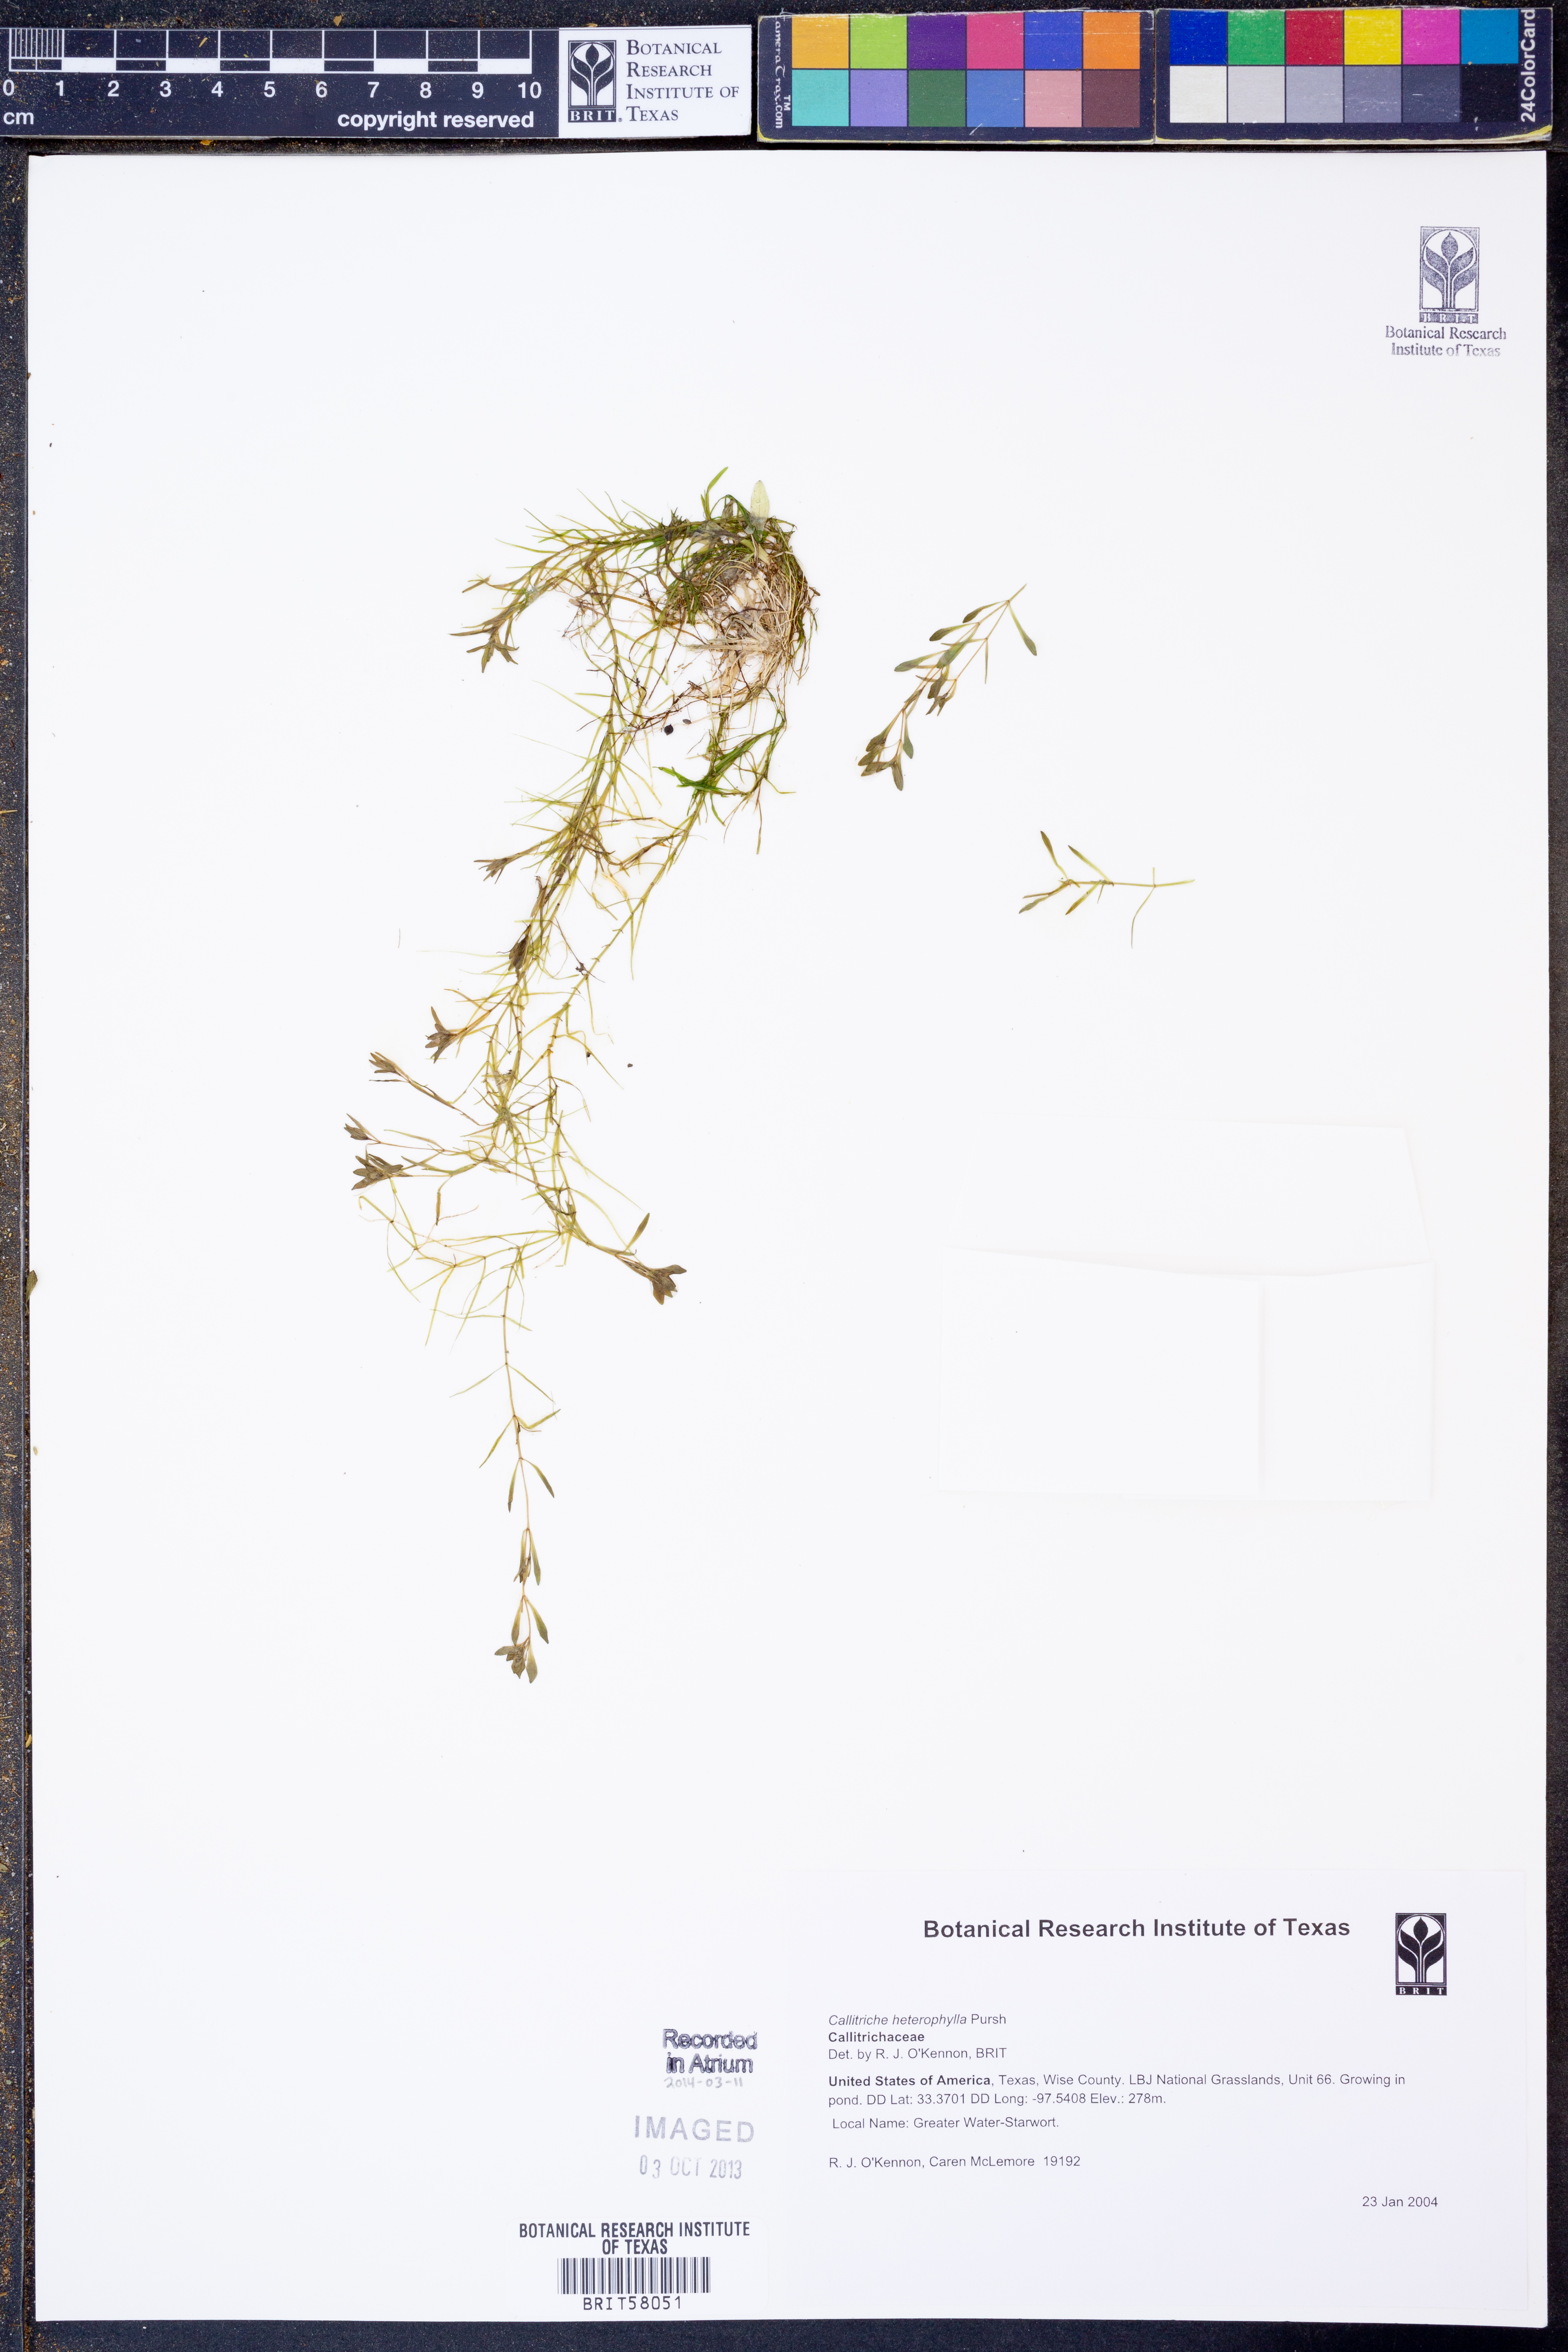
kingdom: Plantae
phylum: Tracheophyta
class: Magnoliopsida
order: Lamiales
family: Plantaginaceae
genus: Callitriche
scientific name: Callitriche heterophylla
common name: Two-headed water-starwort
